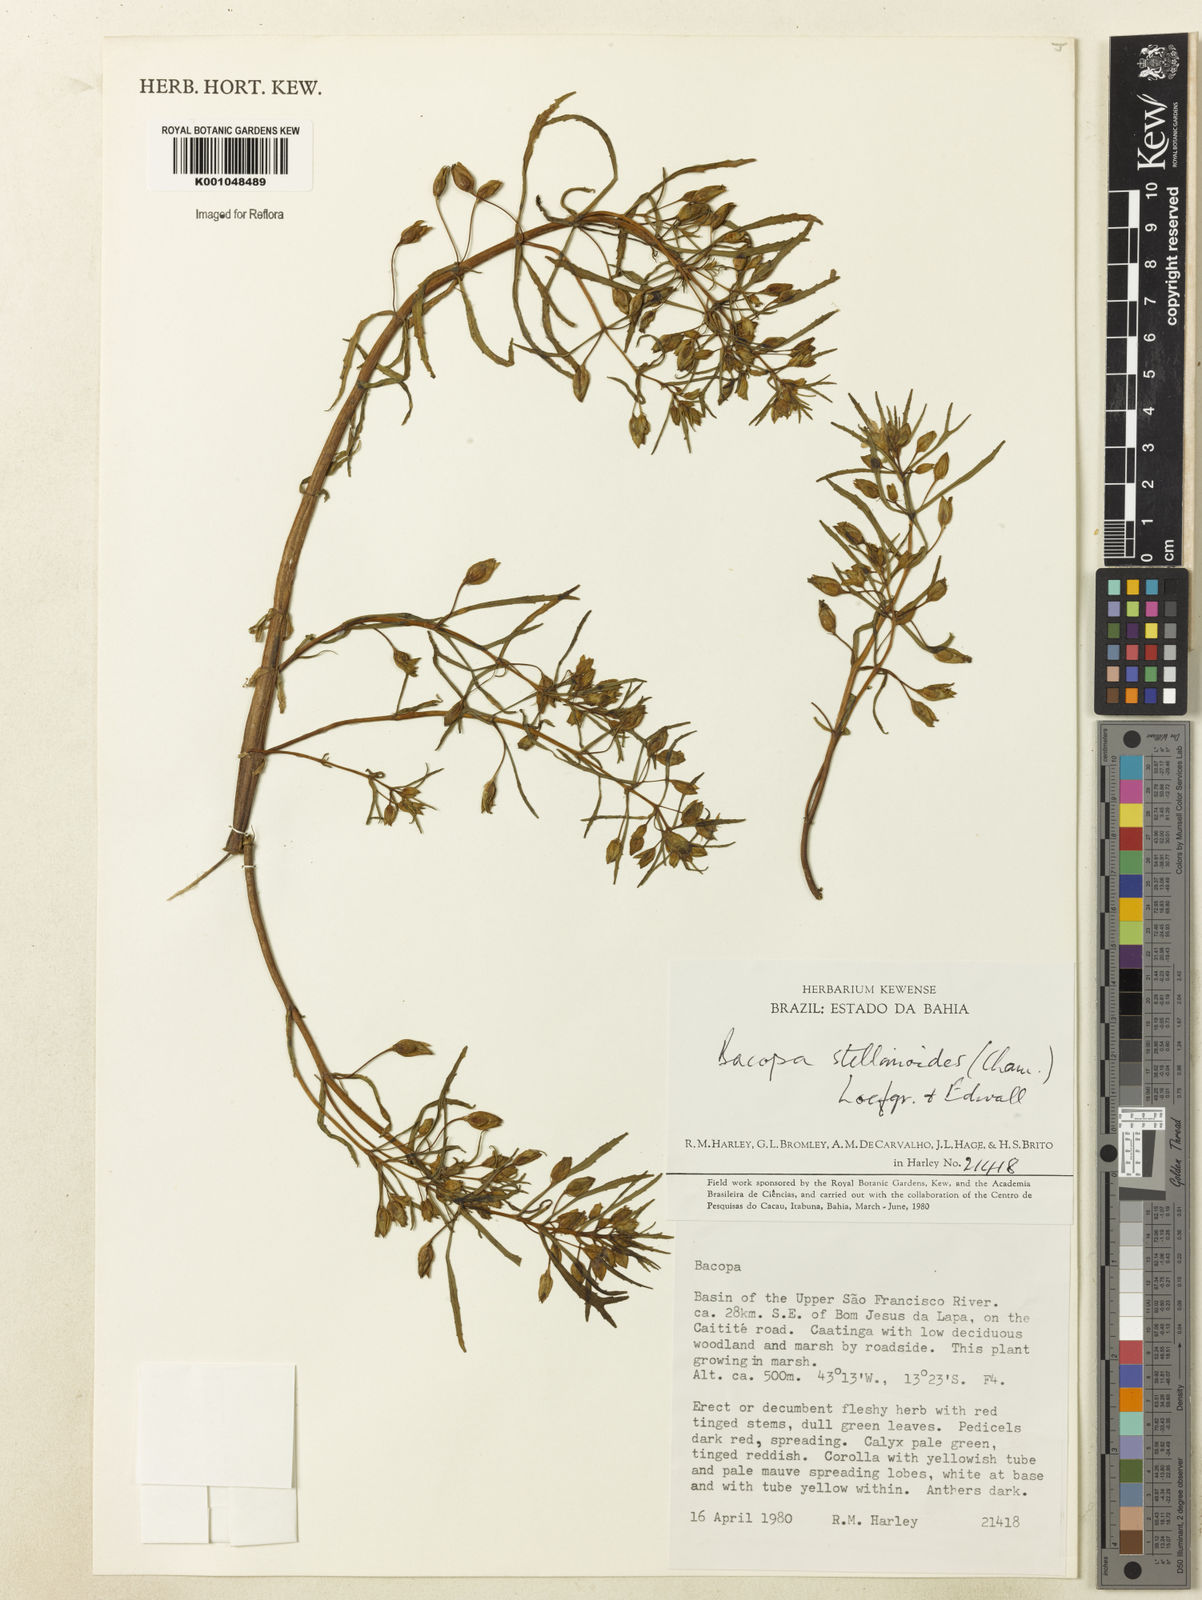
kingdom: Plantae
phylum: Tracheophyta
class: Magnoliopsida
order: Lamiales
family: Plantaginaceae
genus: Bacopa
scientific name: Bacopa aquatica
